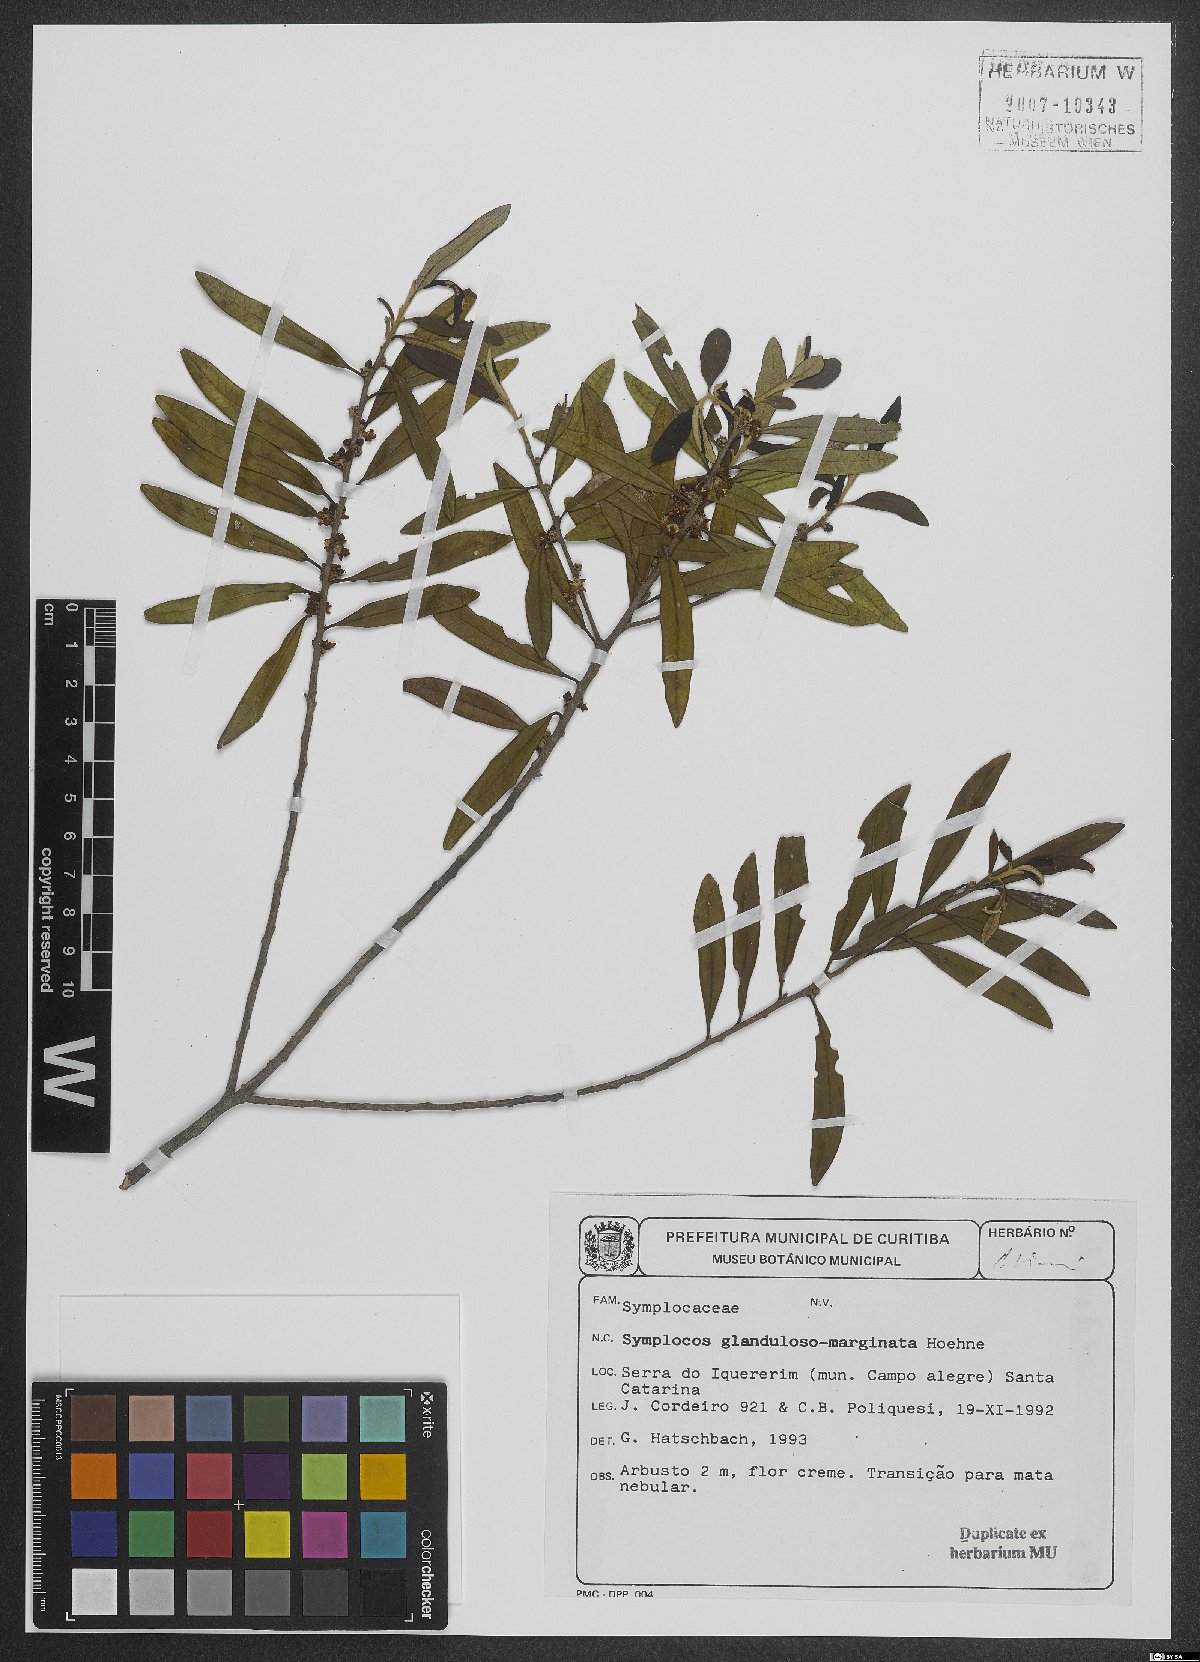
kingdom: Plantae
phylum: Tracheophyta
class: Magnoliopsida
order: Ericales
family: Symplocaceae
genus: Symplocos
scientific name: Symplocos glandulosomarginata
